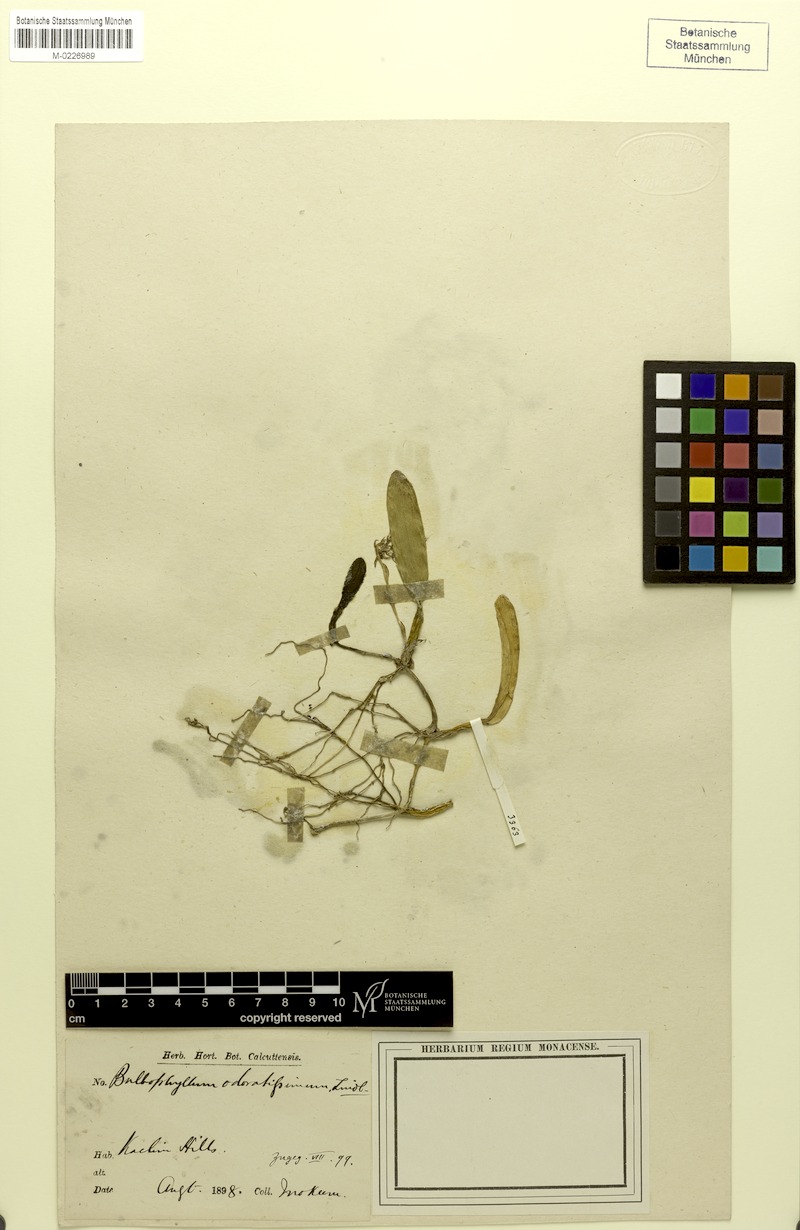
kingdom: Plantae
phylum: Tracheophyta
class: Liliopsida
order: Asparagales
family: Orchidaceae
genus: Bulbophyllum
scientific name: Bulbophyllum odoratissimum
